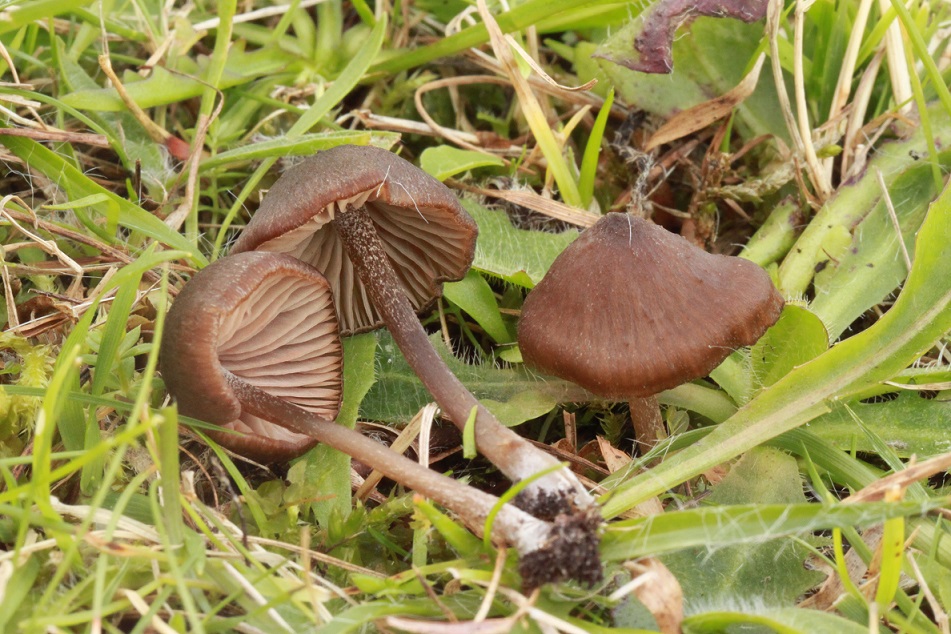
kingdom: Fungi
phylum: Basidiomycota
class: Agaricomycetes
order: Agaricales
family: Entolomataceae
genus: Entoloma
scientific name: Entoloma clandestinum
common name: tykbladet rødblad
